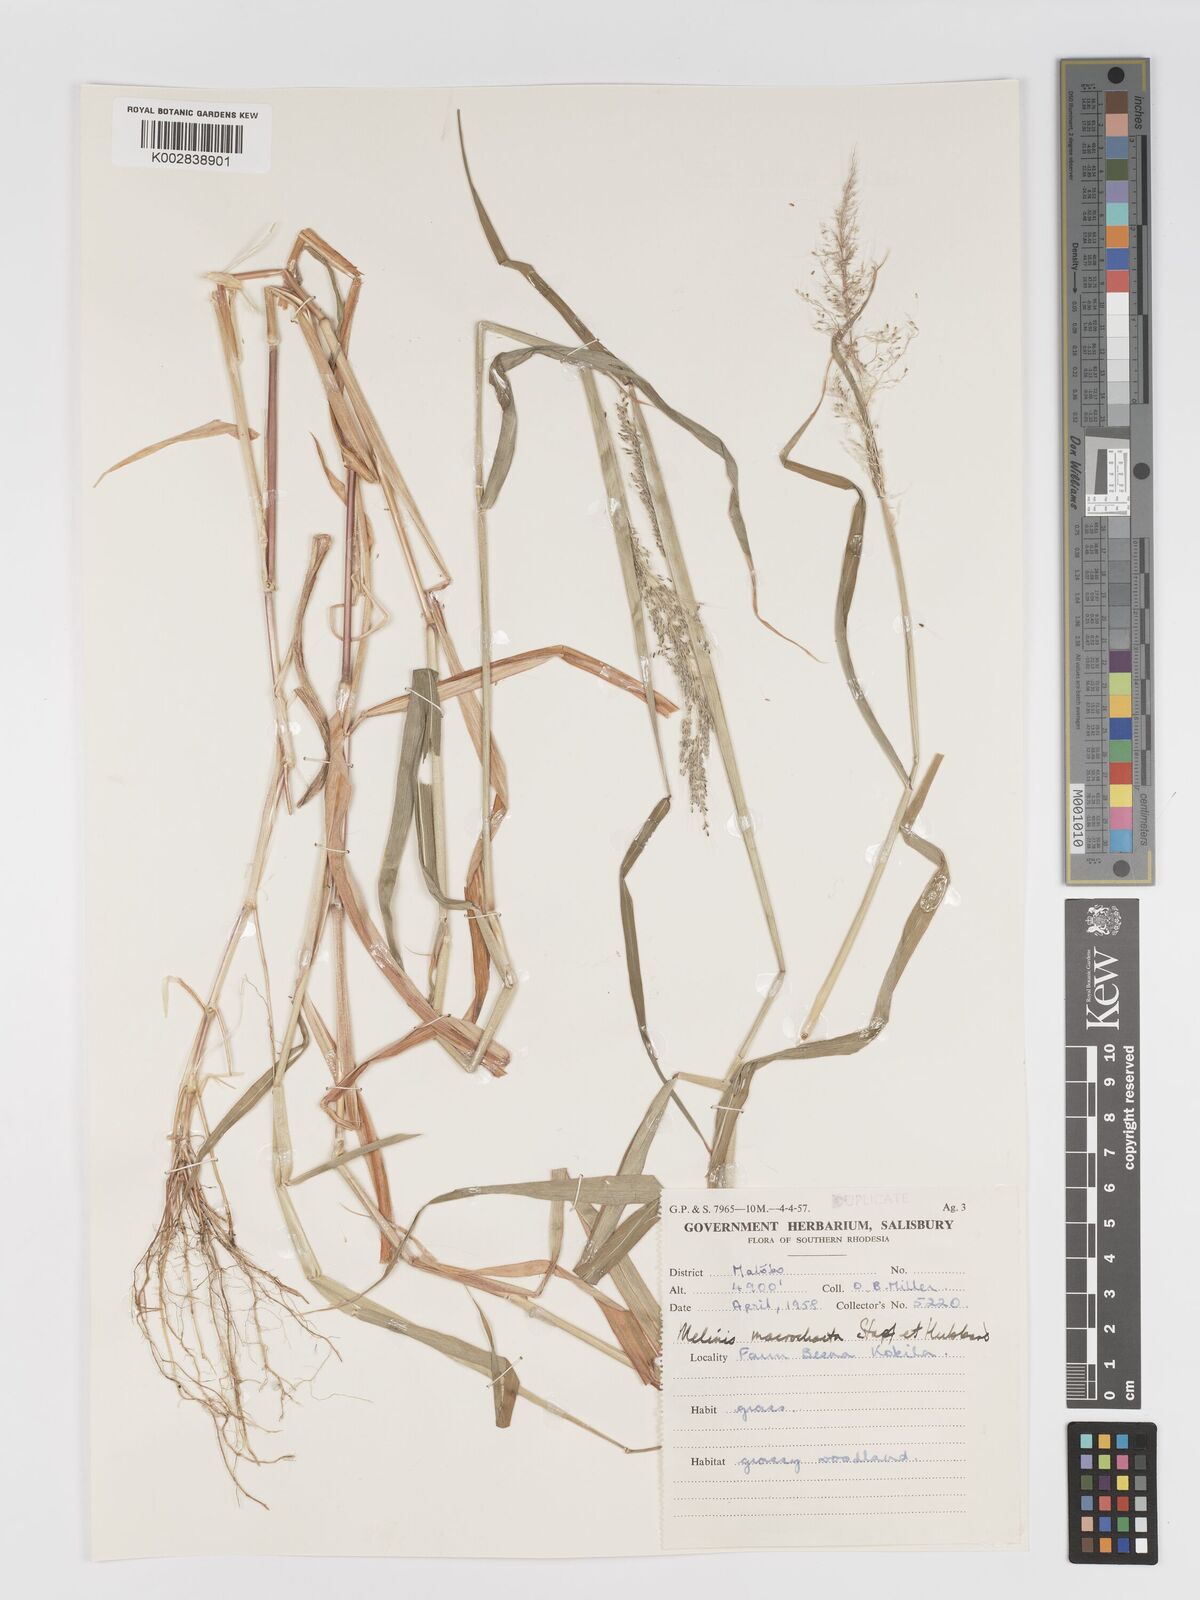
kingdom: Plantae
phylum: Tracheophyta
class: Liliopsida
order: Poales
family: Poaceae
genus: Melinis
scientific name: Melinis macrochaeta
